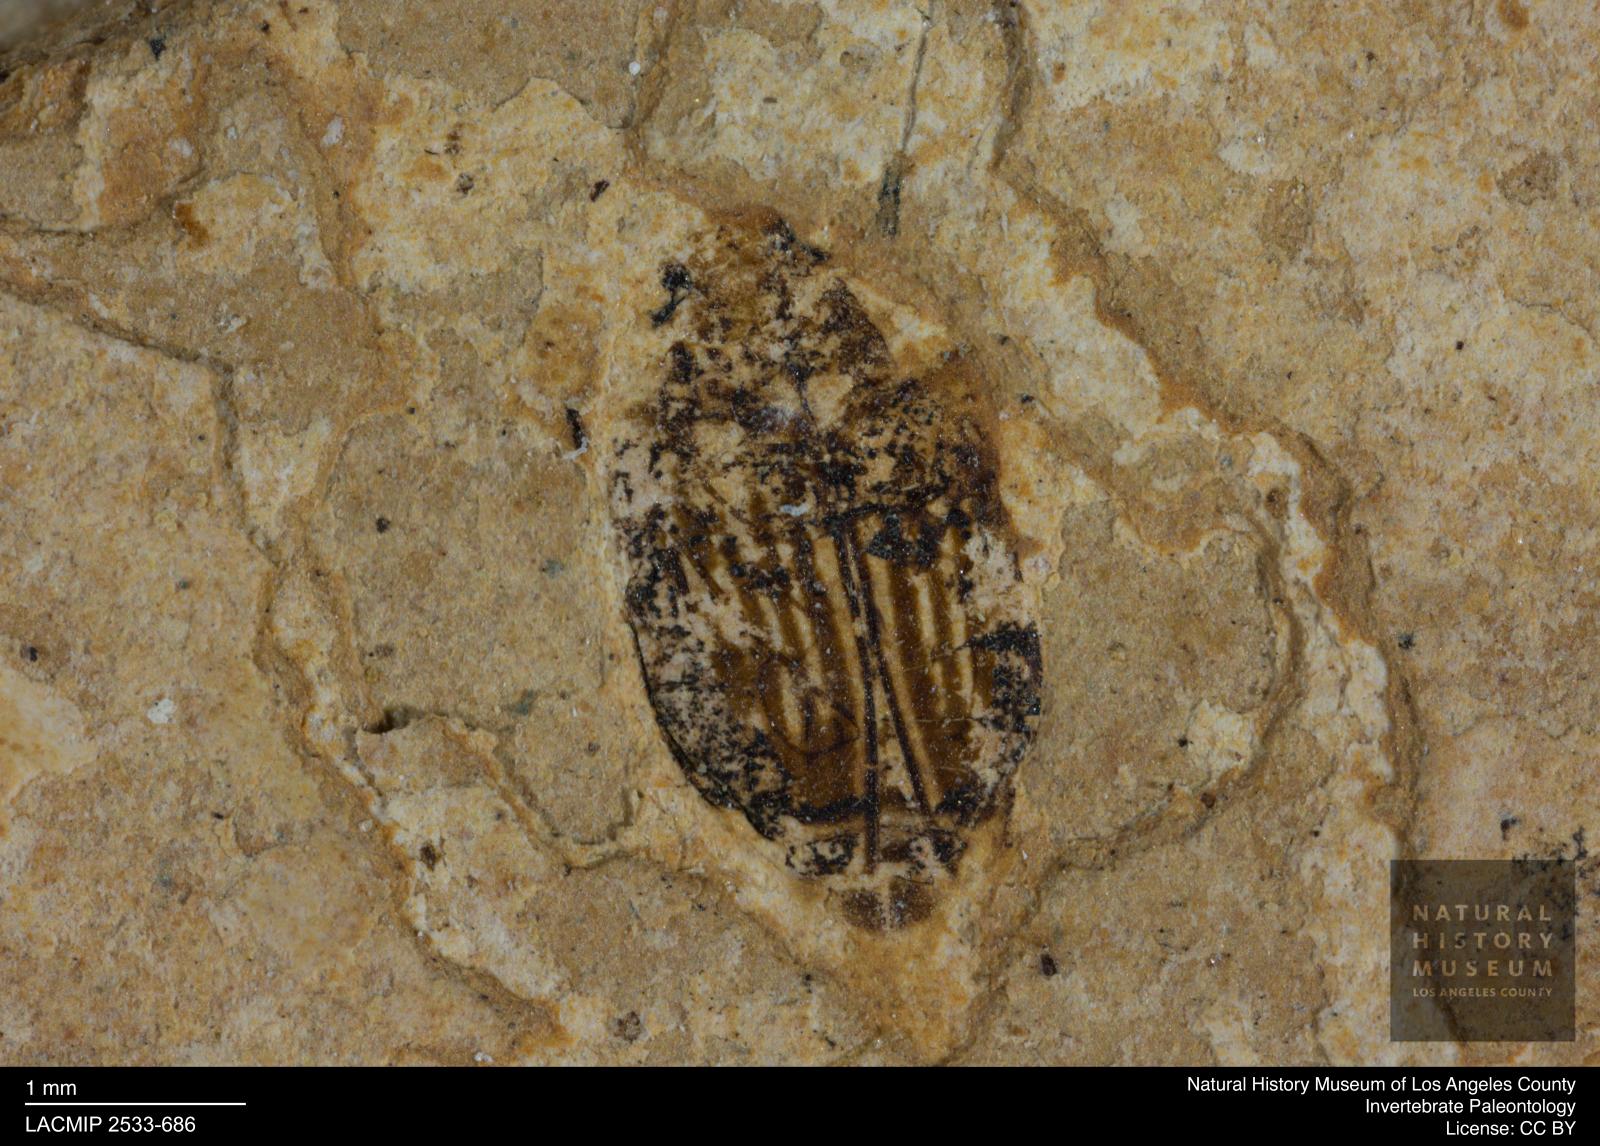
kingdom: Animalia
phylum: Arthropoda
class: Insecta
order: Coleoptera
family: Dytiscidae
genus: Oreodytes
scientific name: Oreodytes cryptolineatus
